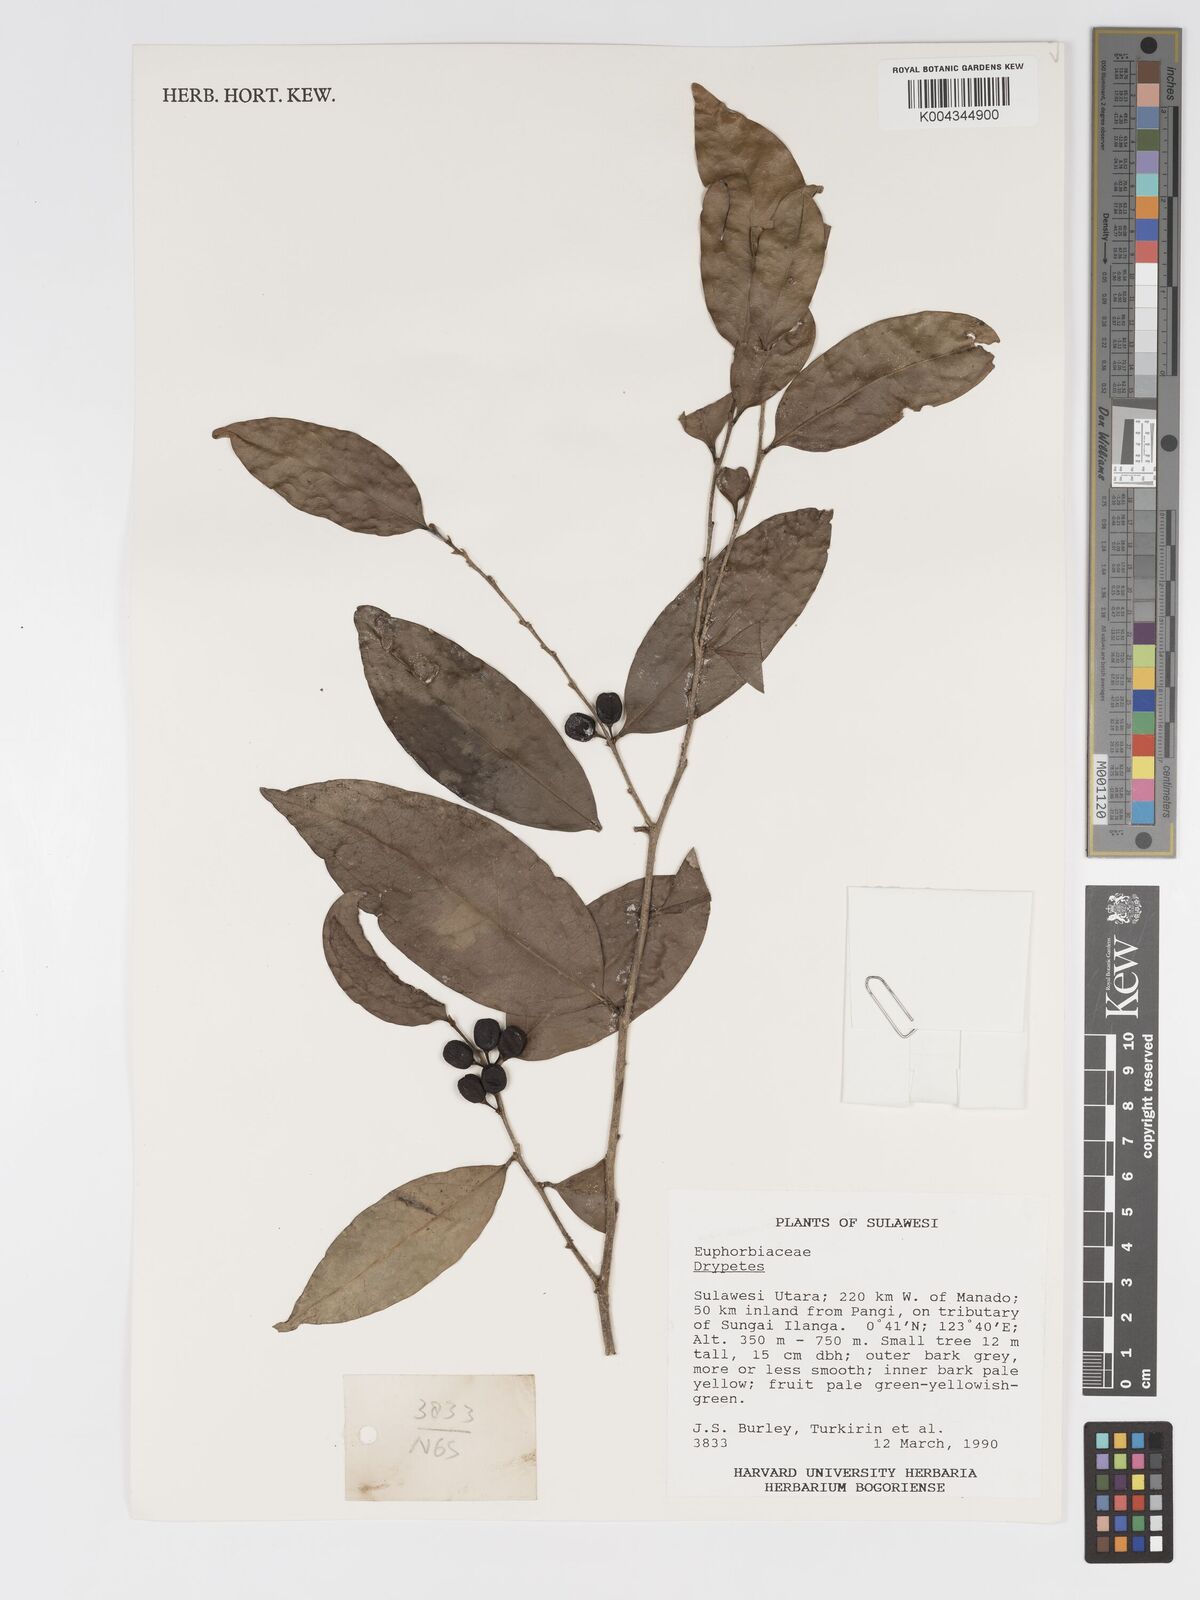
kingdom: Plantae
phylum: Tracheophyta
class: Magnoliopsida
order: Malpighiales
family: Putranjivaceae
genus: Drypetes
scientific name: Drypetes
